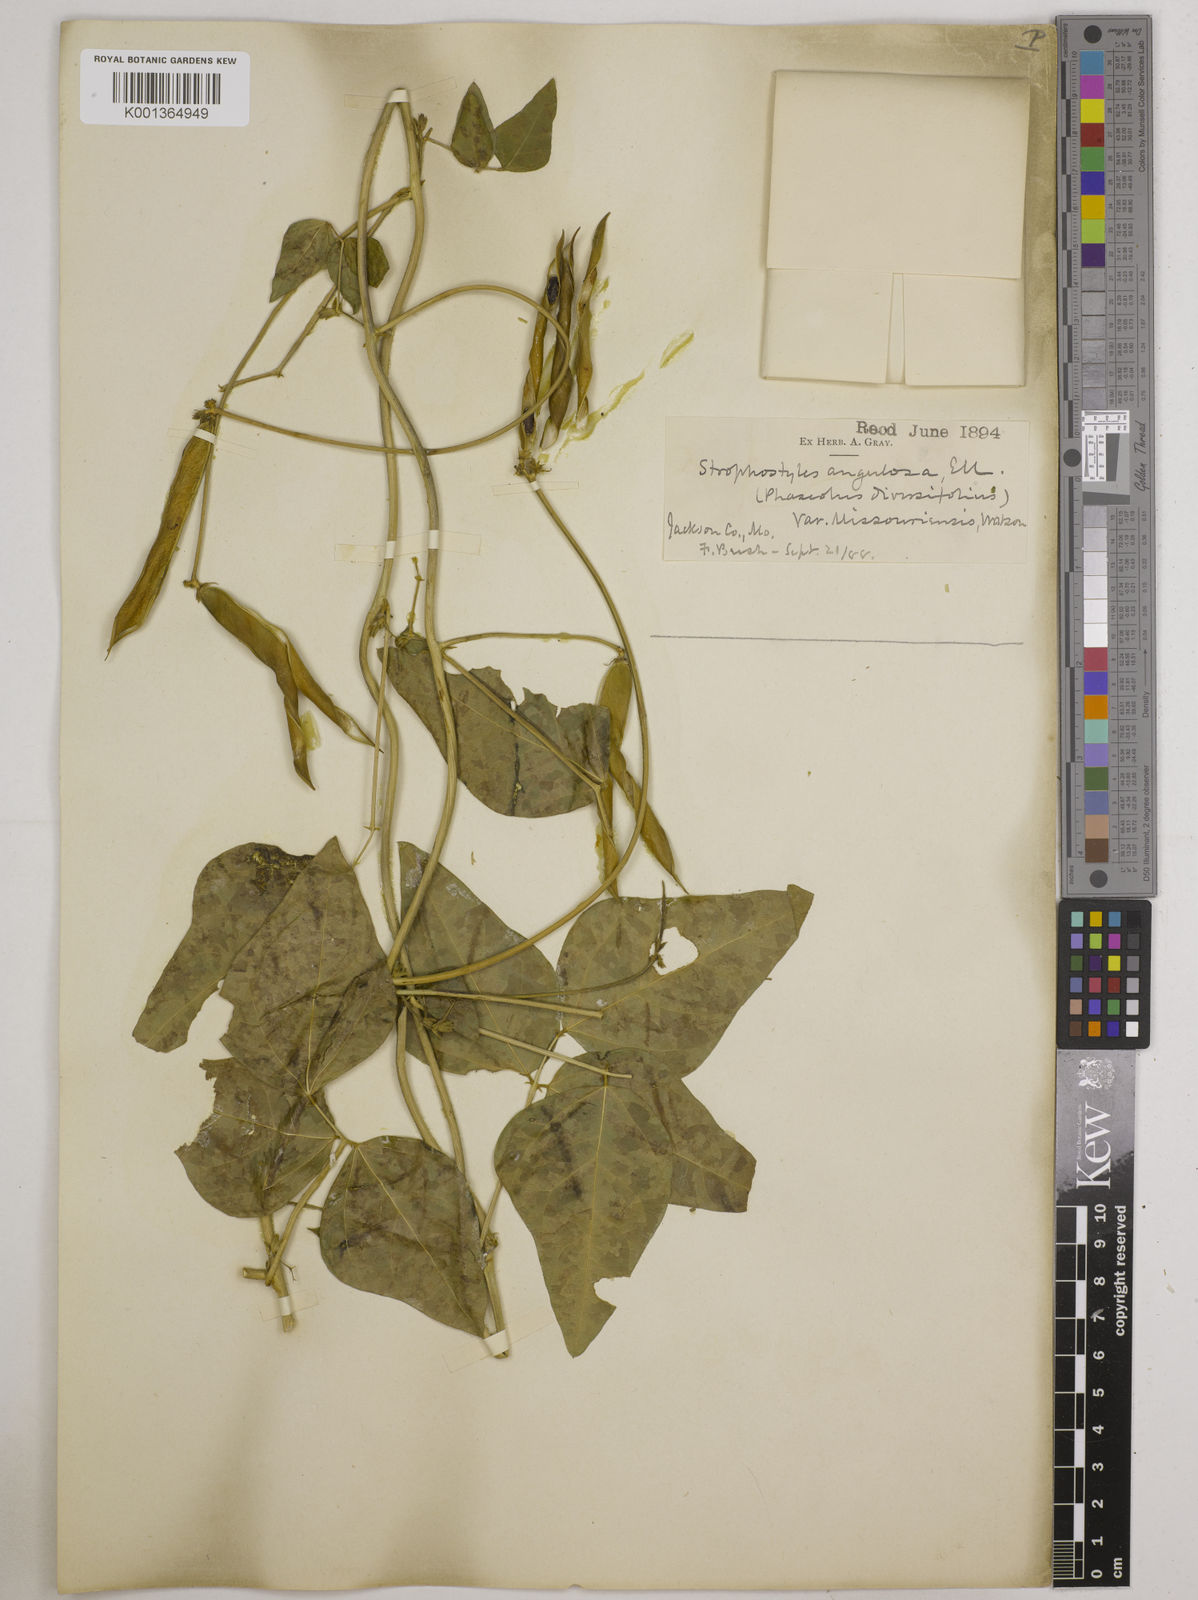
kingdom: Plantae
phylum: Tracheophyta
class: Magnoliopsida
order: Fabales
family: Fabaceae
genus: Strophostyles
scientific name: Strophostyles
